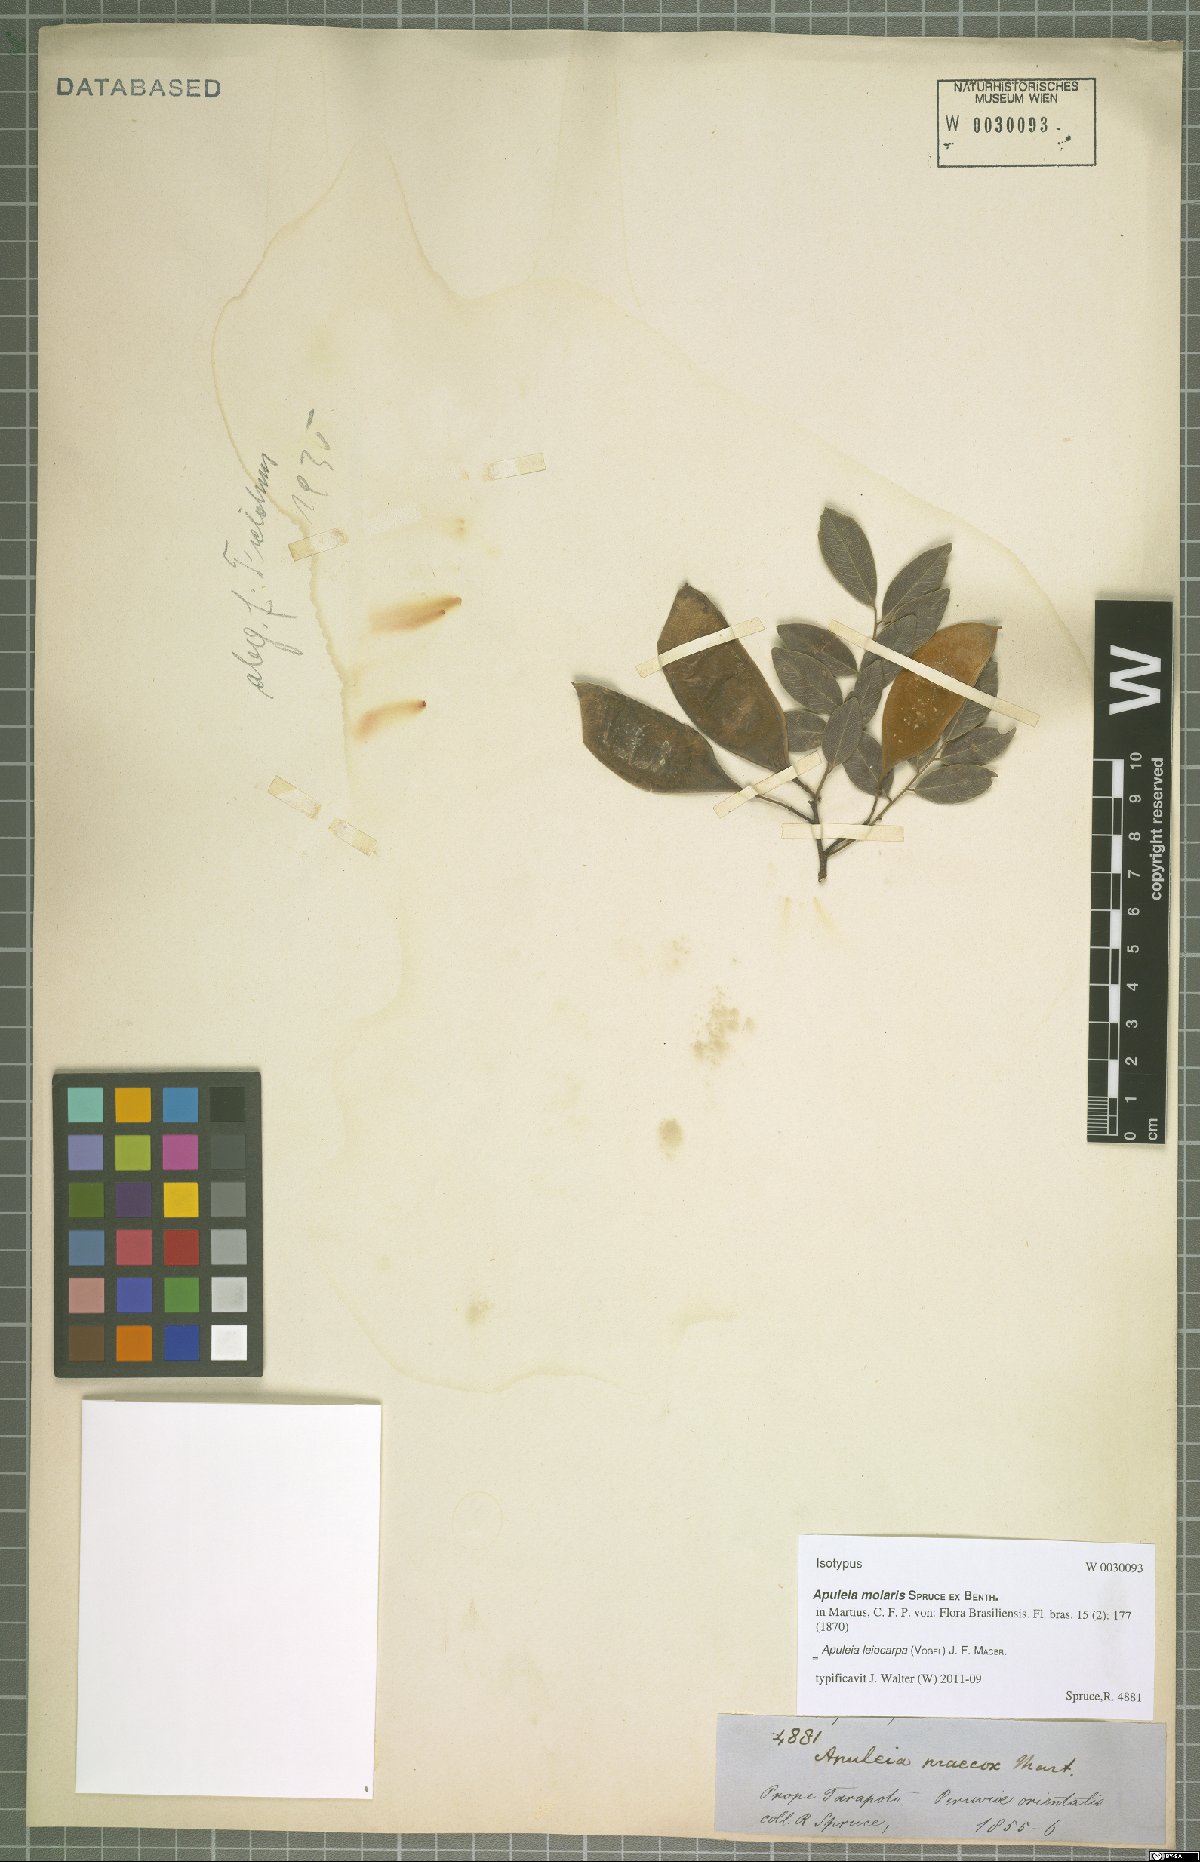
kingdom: Plantae
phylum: Tracheophyta
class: Magnoliopsida
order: Fabales
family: Fabaceae
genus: Apuleia
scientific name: Apuleia leiocarpa
